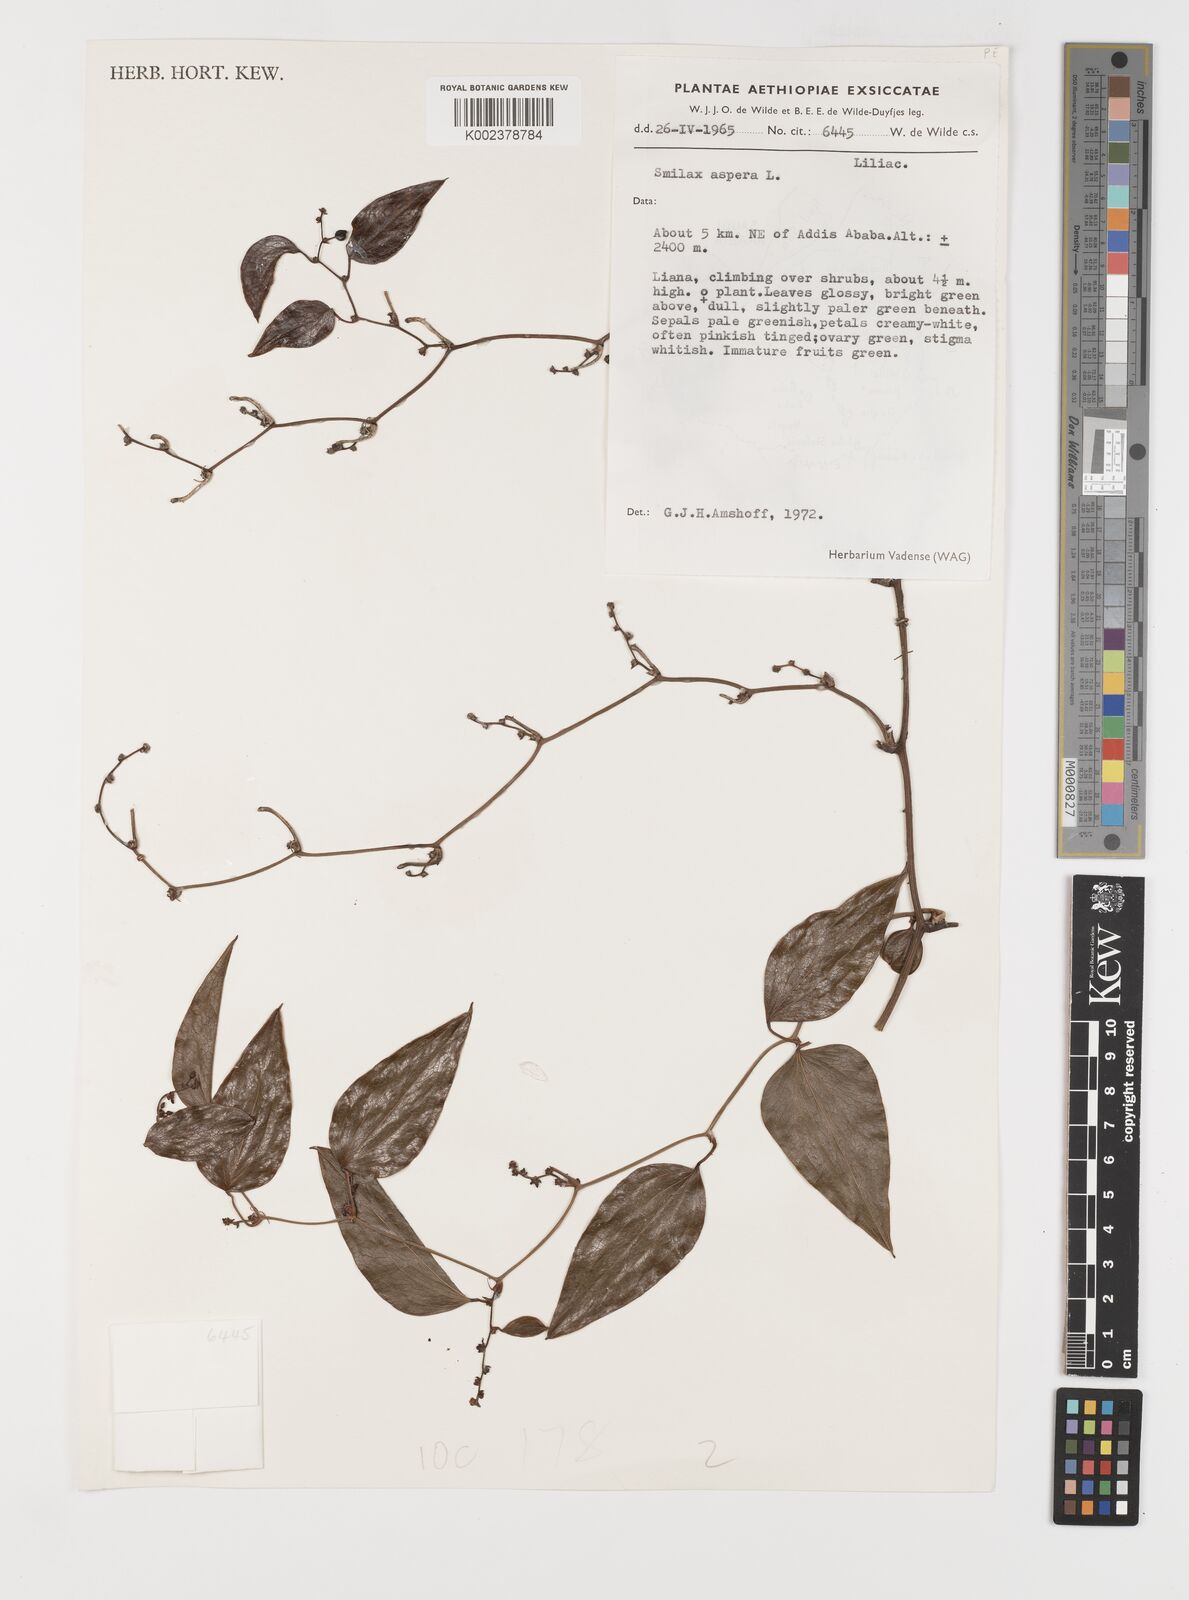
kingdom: Plantae
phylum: Tracheophyta
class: Liliopsida
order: Liliales
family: Smilacaceae
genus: Smilax
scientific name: Smilax aspera
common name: Common smilax
